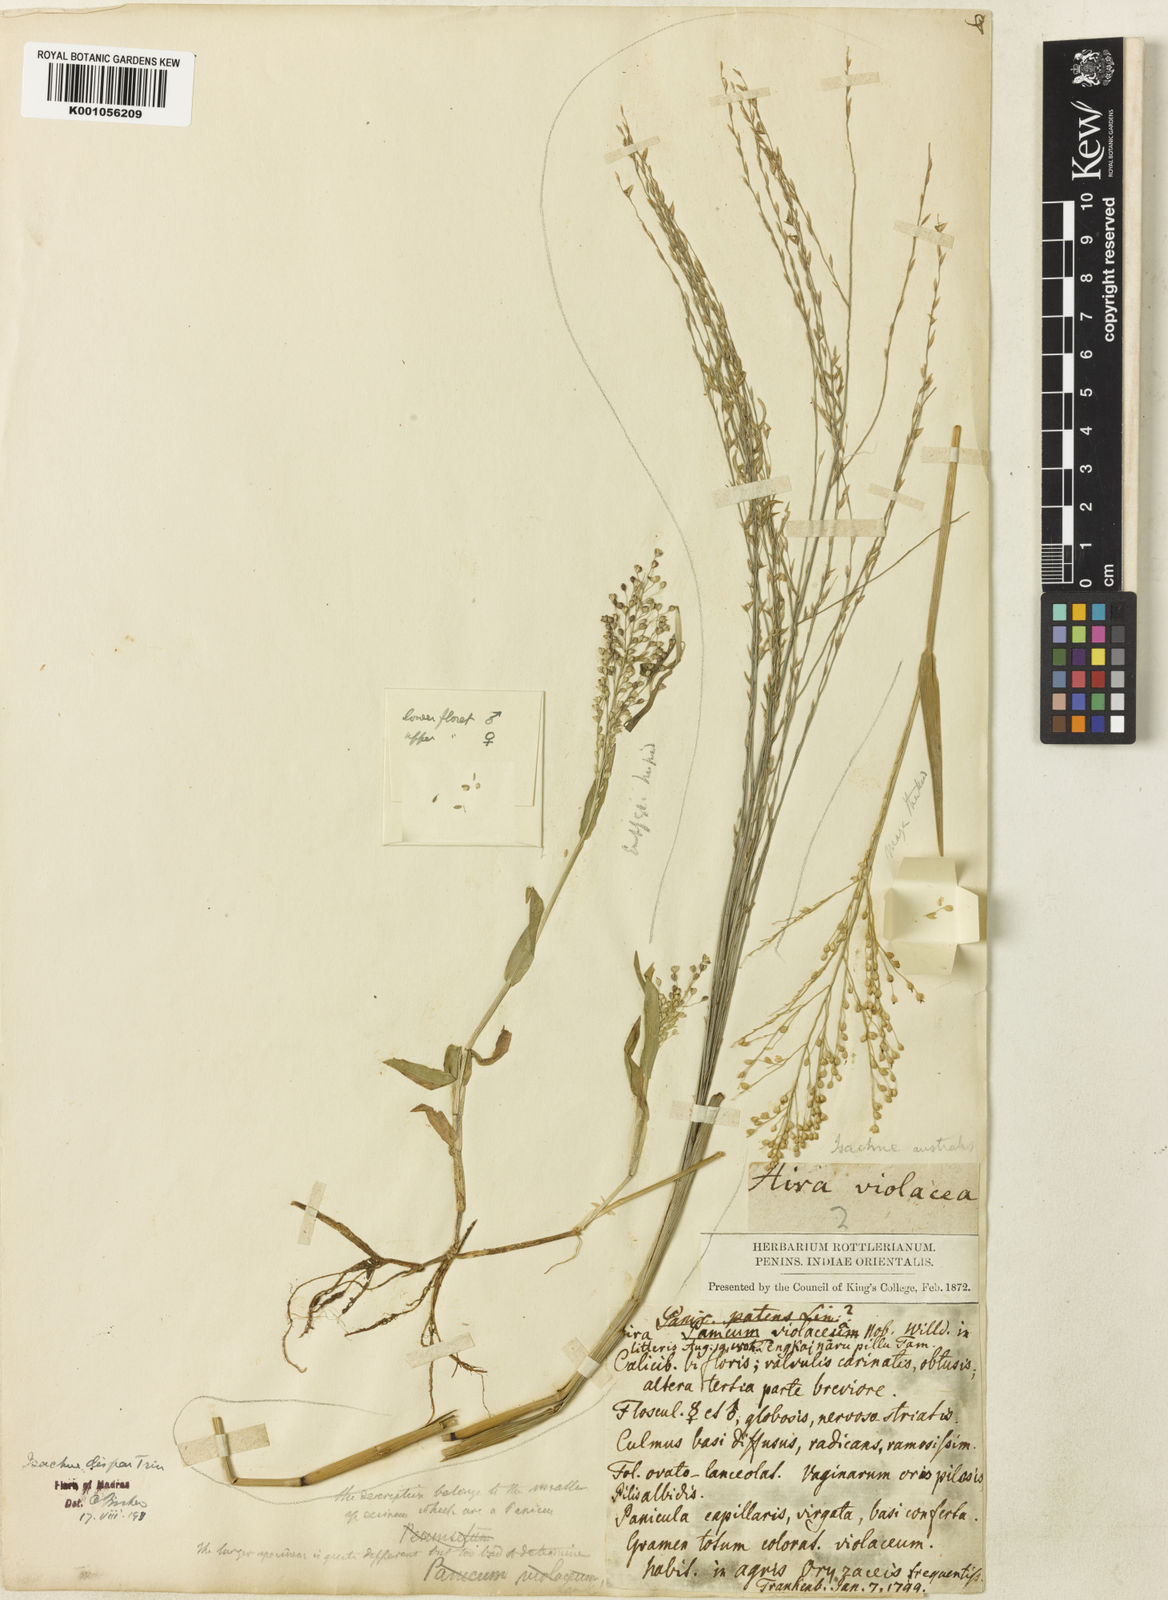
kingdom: Plantae
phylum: Tracheophyta
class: Liliopsida
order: Poales
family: Poaceae
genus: Isachne
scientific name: Isachne globosa
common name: Swamp millet
